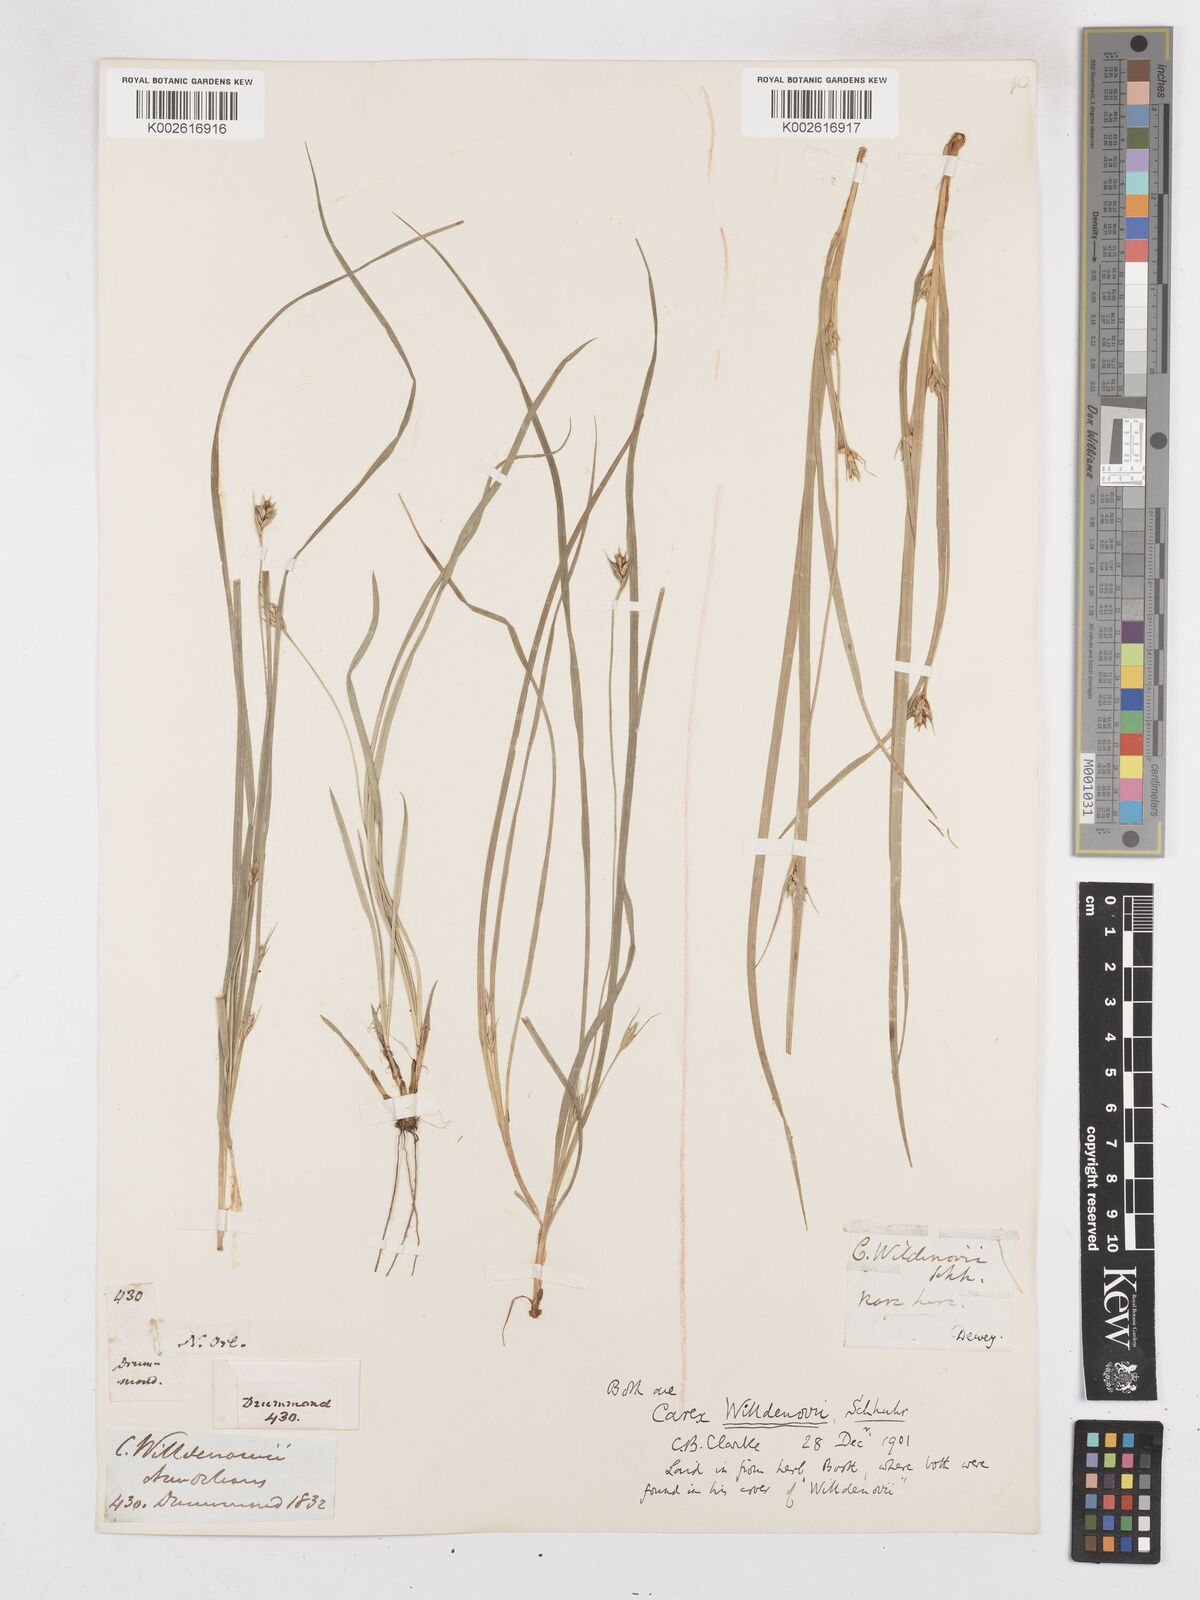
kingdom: Plantae
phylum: Tracheophyta
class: Liliopsida
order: Poales
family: Cyperaceae
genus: Carex
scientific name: Carex willdenowii
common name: Willdenow's sedge
